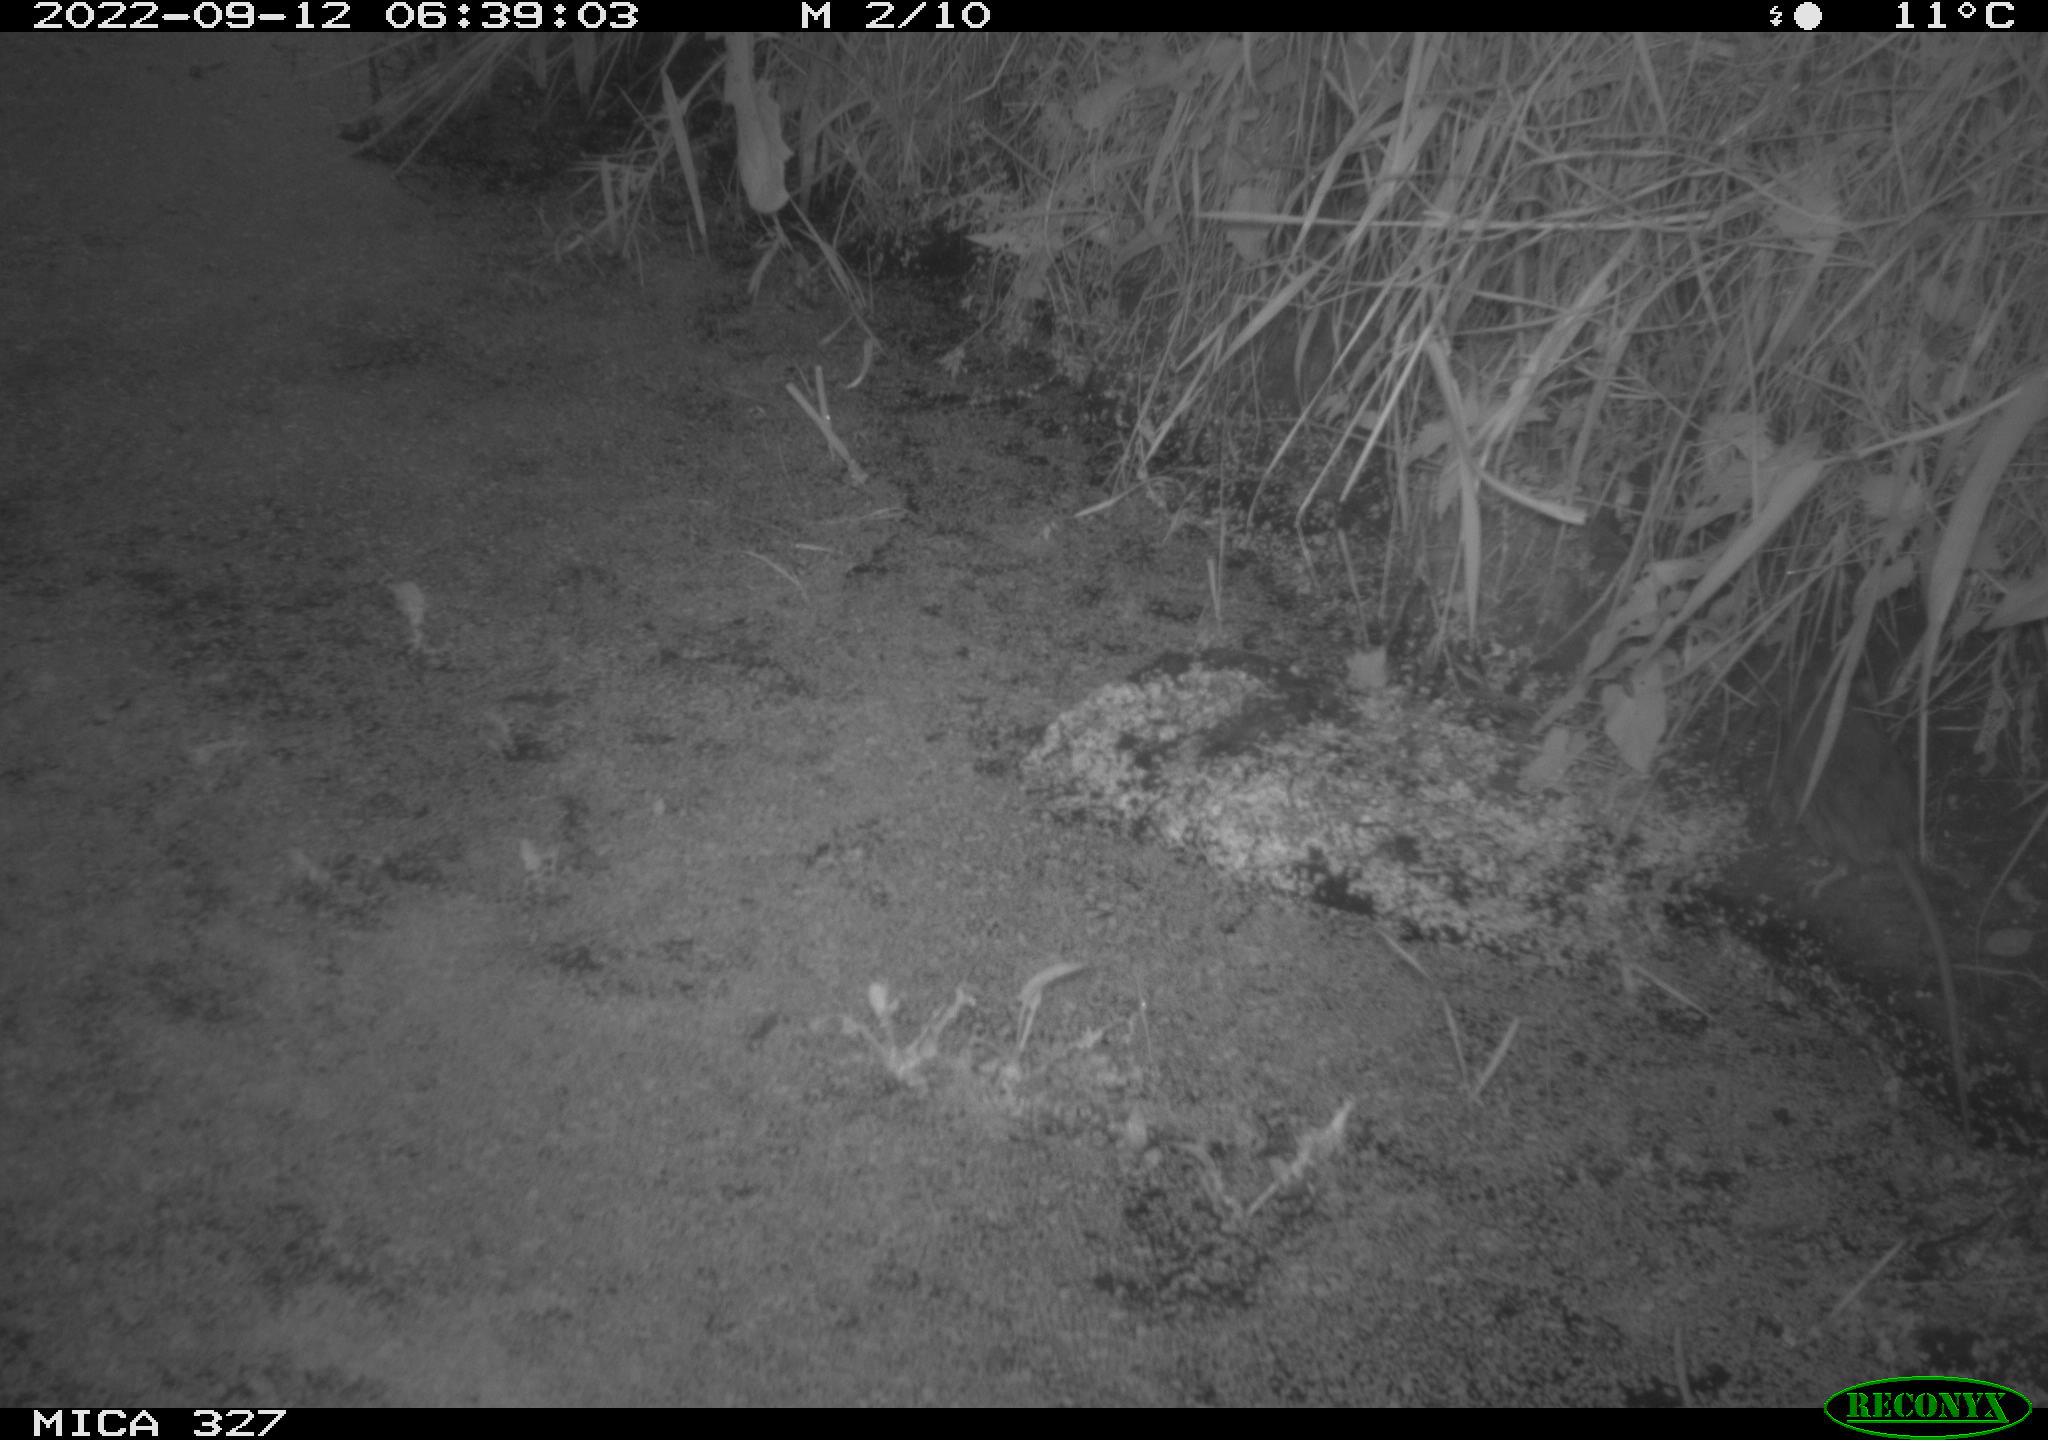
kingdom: Animalia
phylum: Chordata
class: Mammalia
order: Rodentia
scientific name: Rodentia
